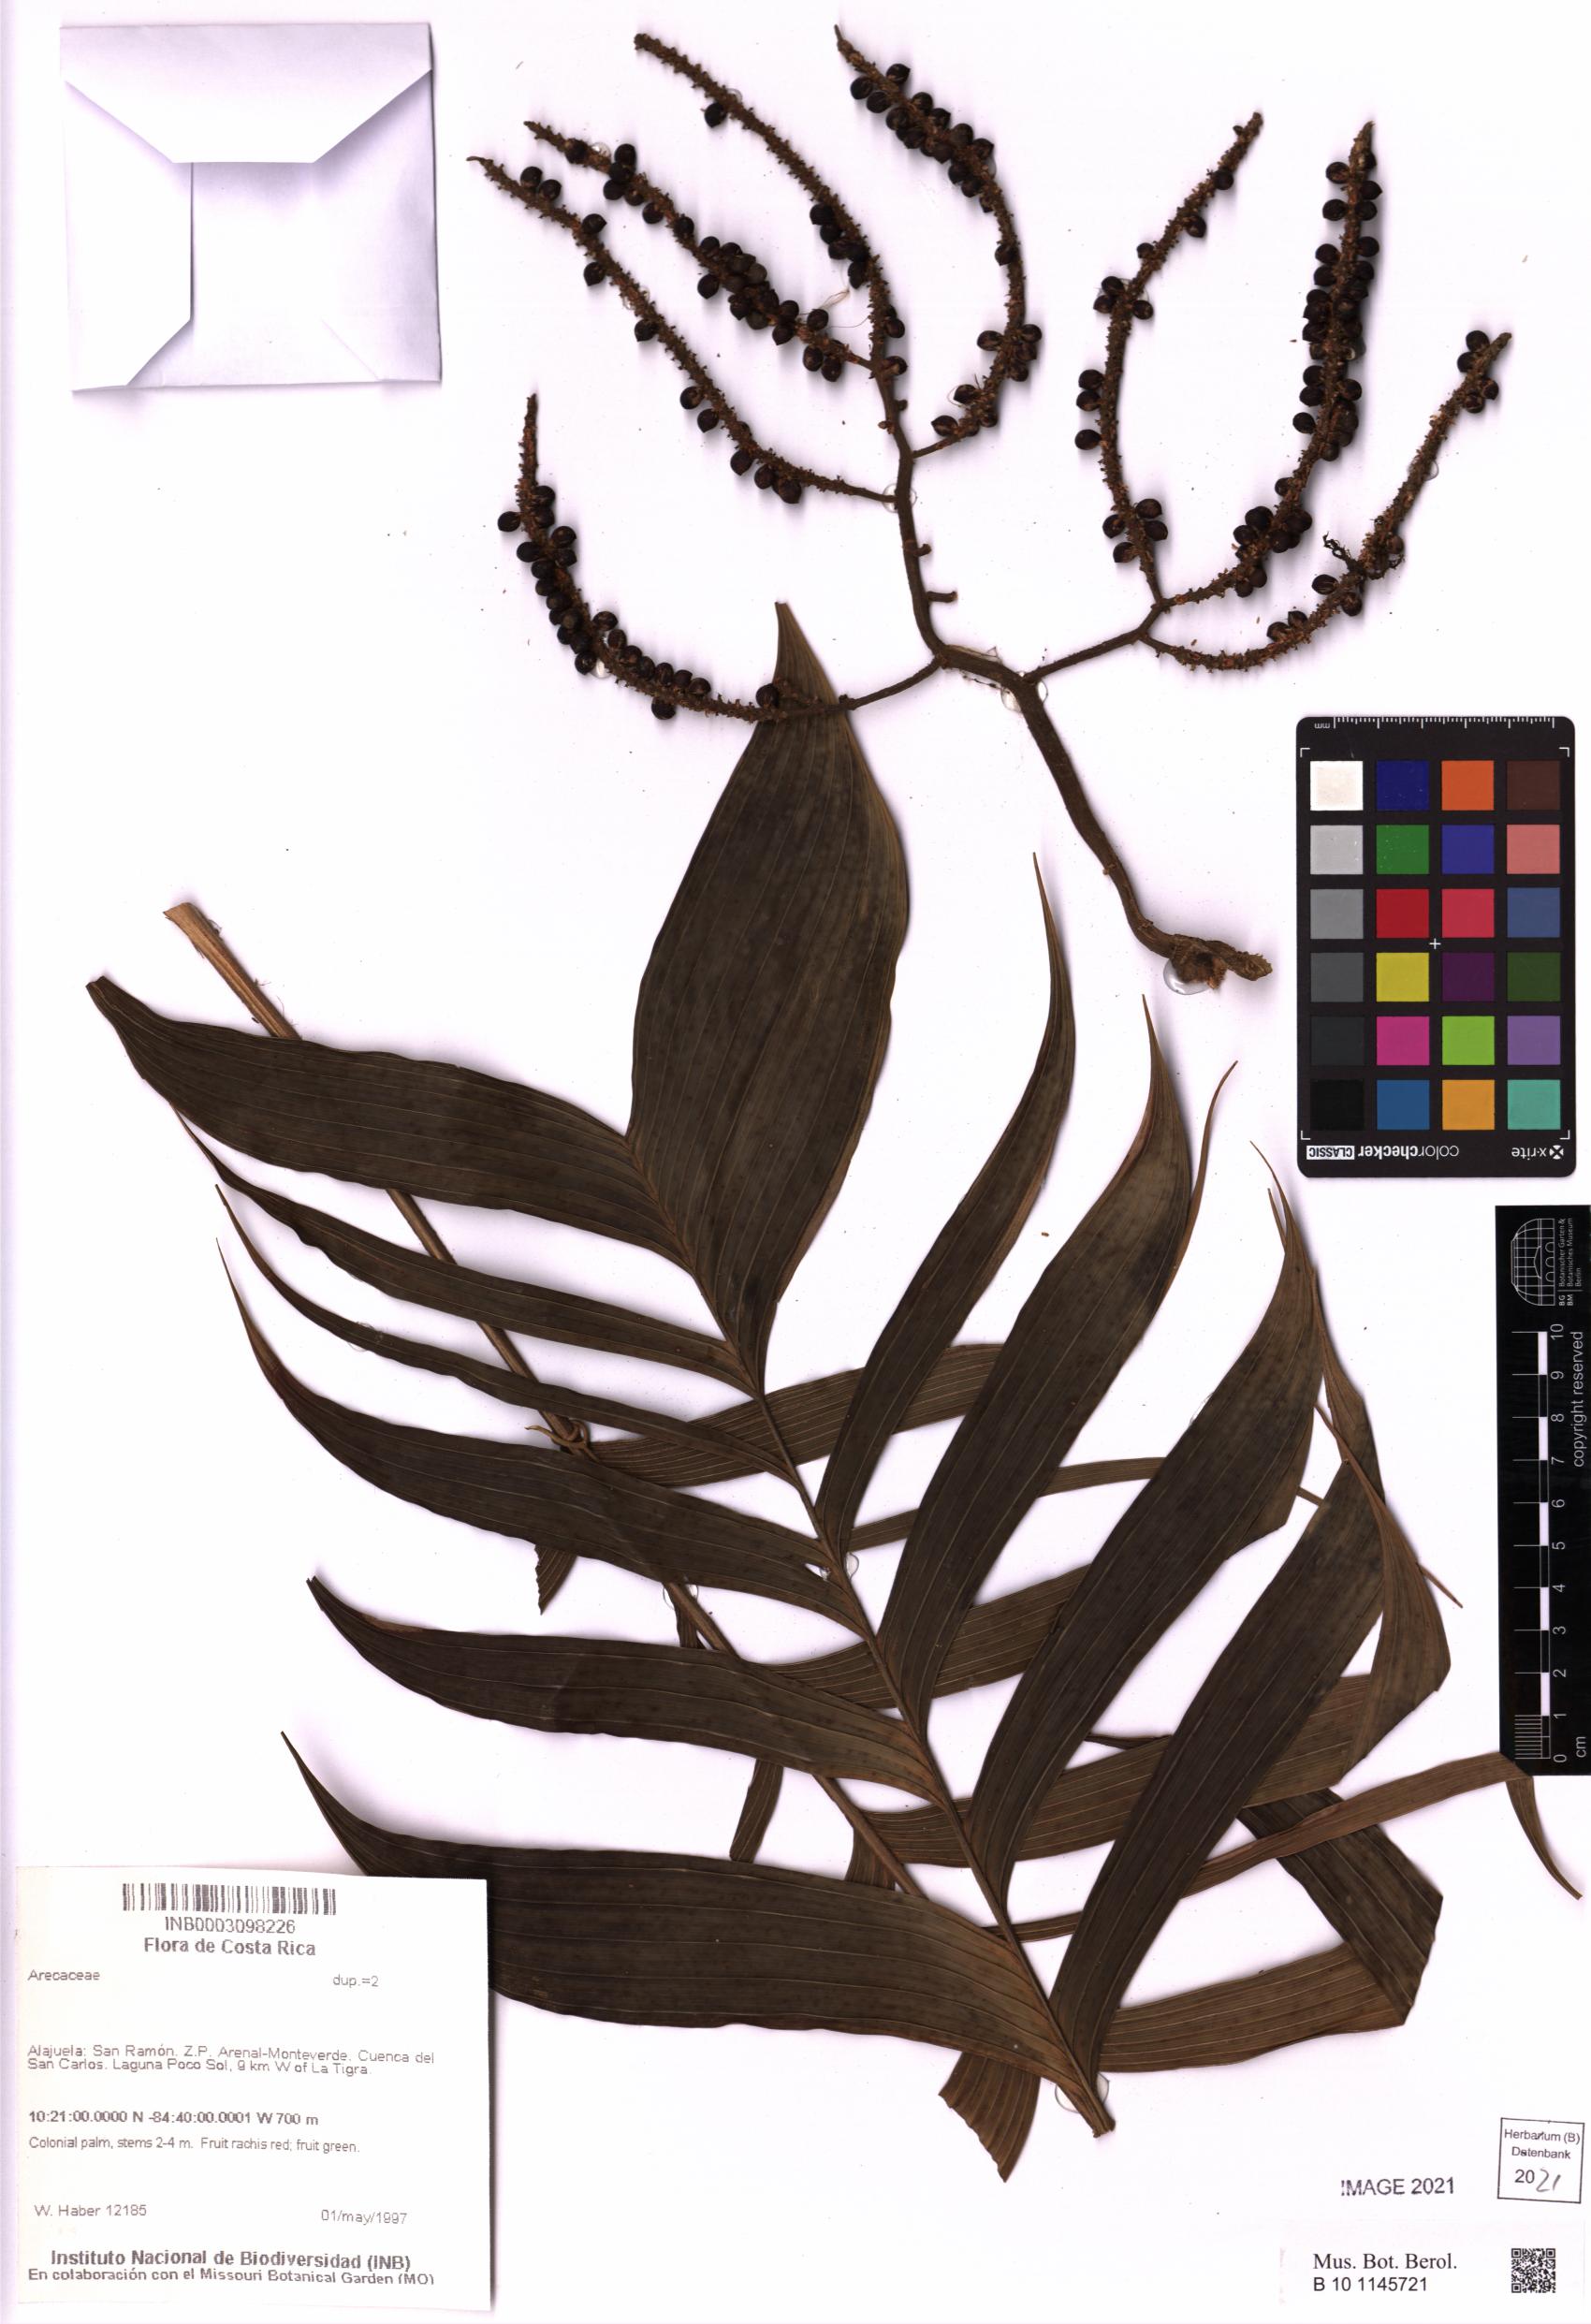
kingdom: Plantae
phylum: Tracheophyta
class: Liliopsida
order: Arecales
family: Arecaceae
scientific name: Arecaceae
